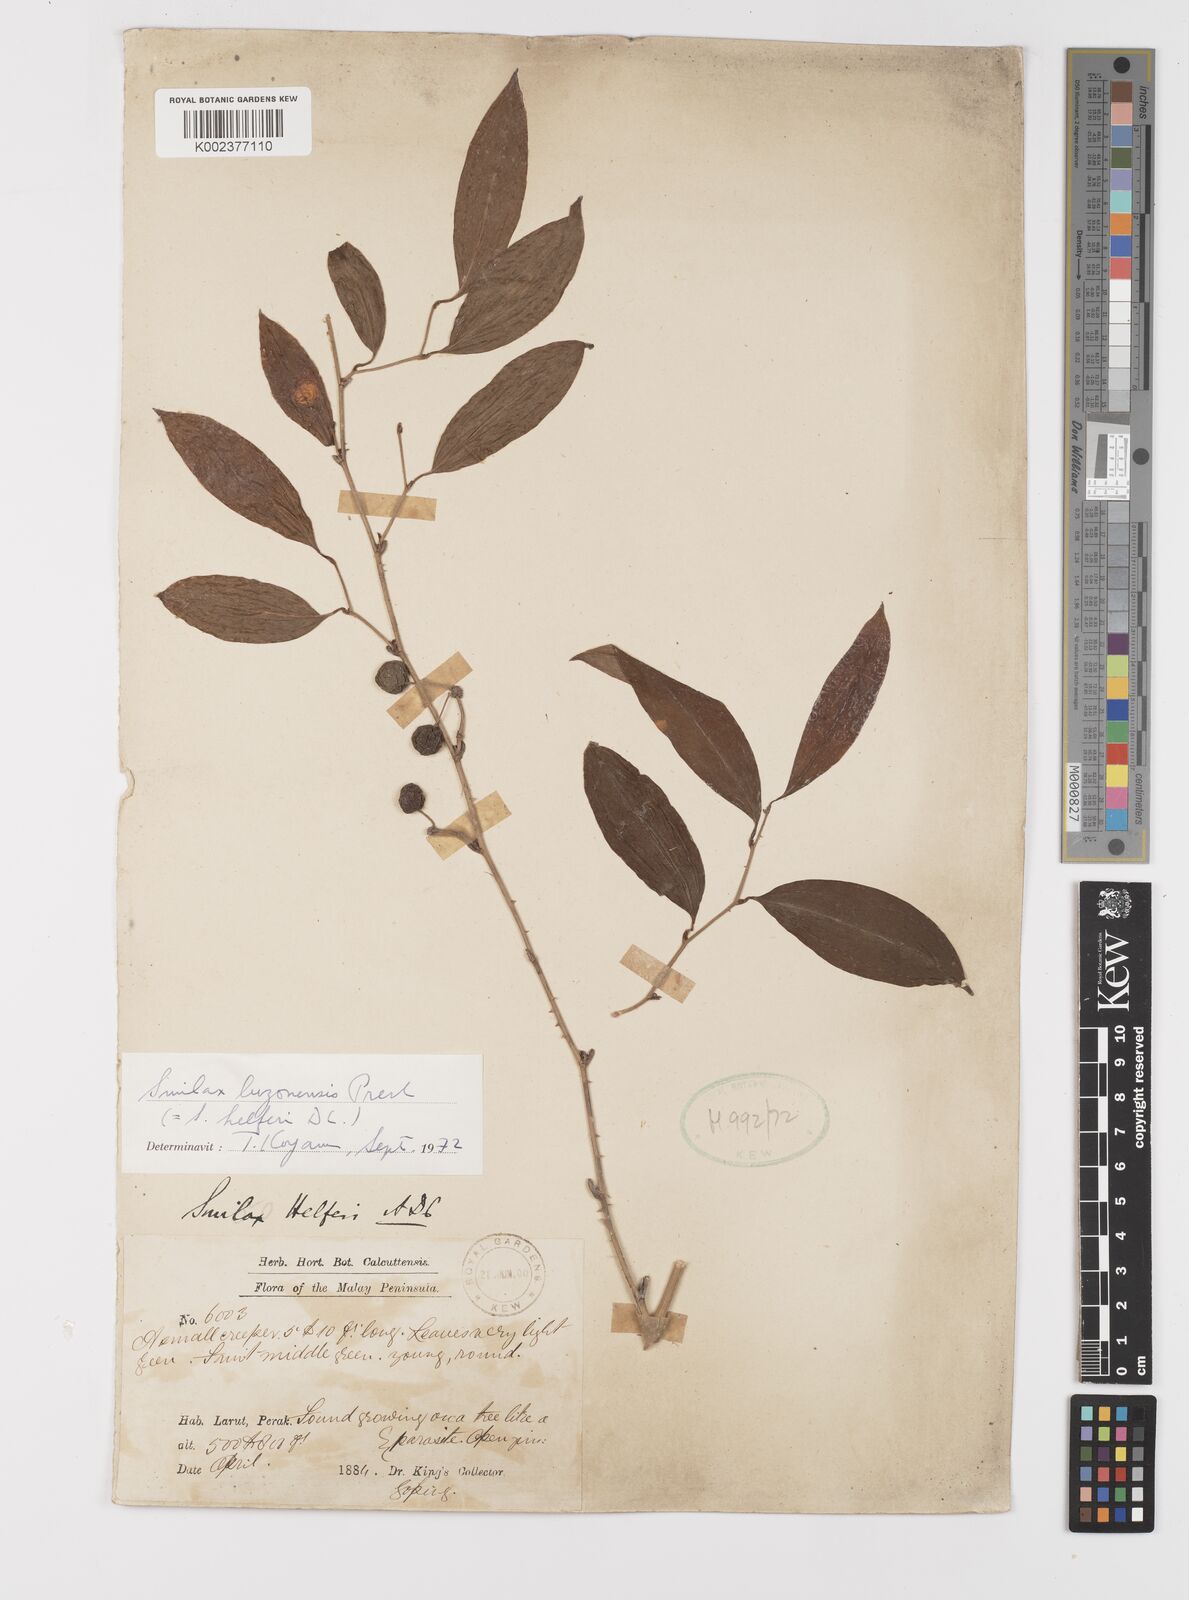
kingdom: Plantae
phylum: Tracheophyta
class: Liliopsida
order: Liliales
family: Smilacaceae
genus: Smilax
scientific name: Smilax luzonensis
